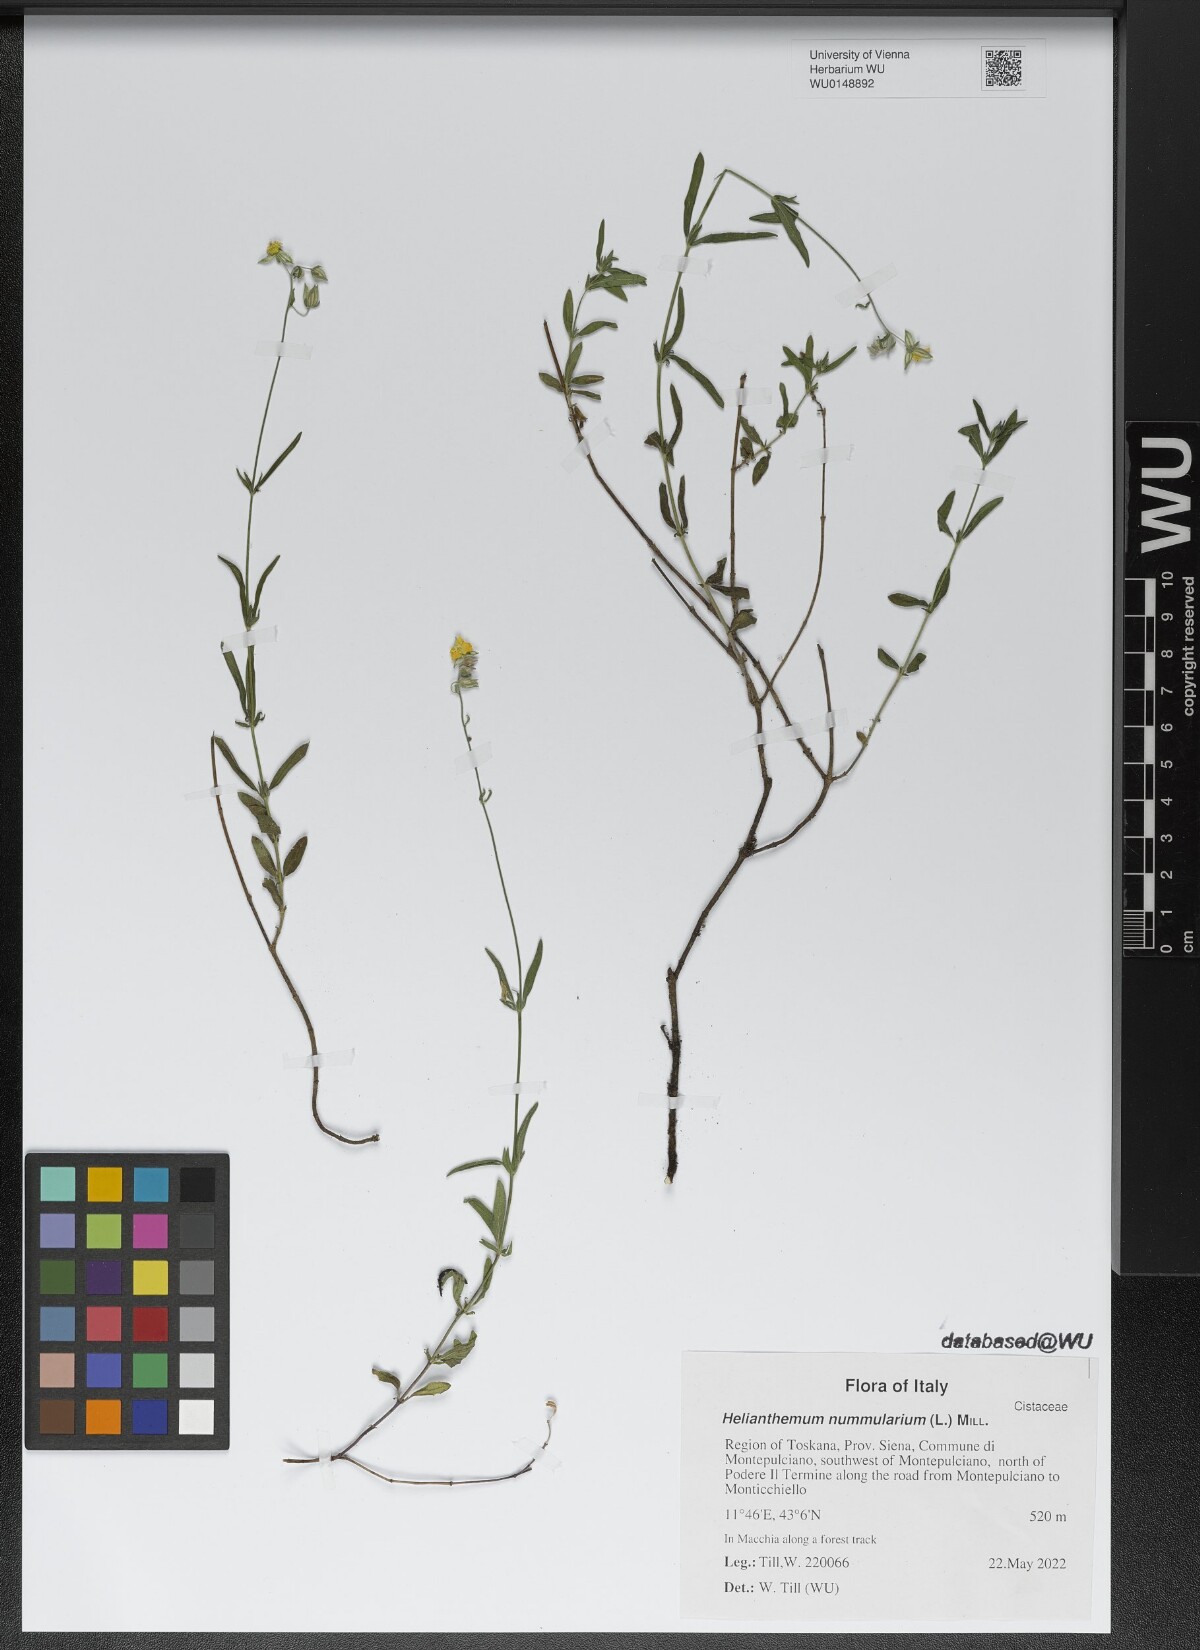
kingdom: Plantae
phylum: Tracheophyta
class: Magnoliopsida
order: Malvales
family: Cistaceae
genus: Helianthemum
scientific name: Helianthemum nummularium
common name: Common rock-rose
